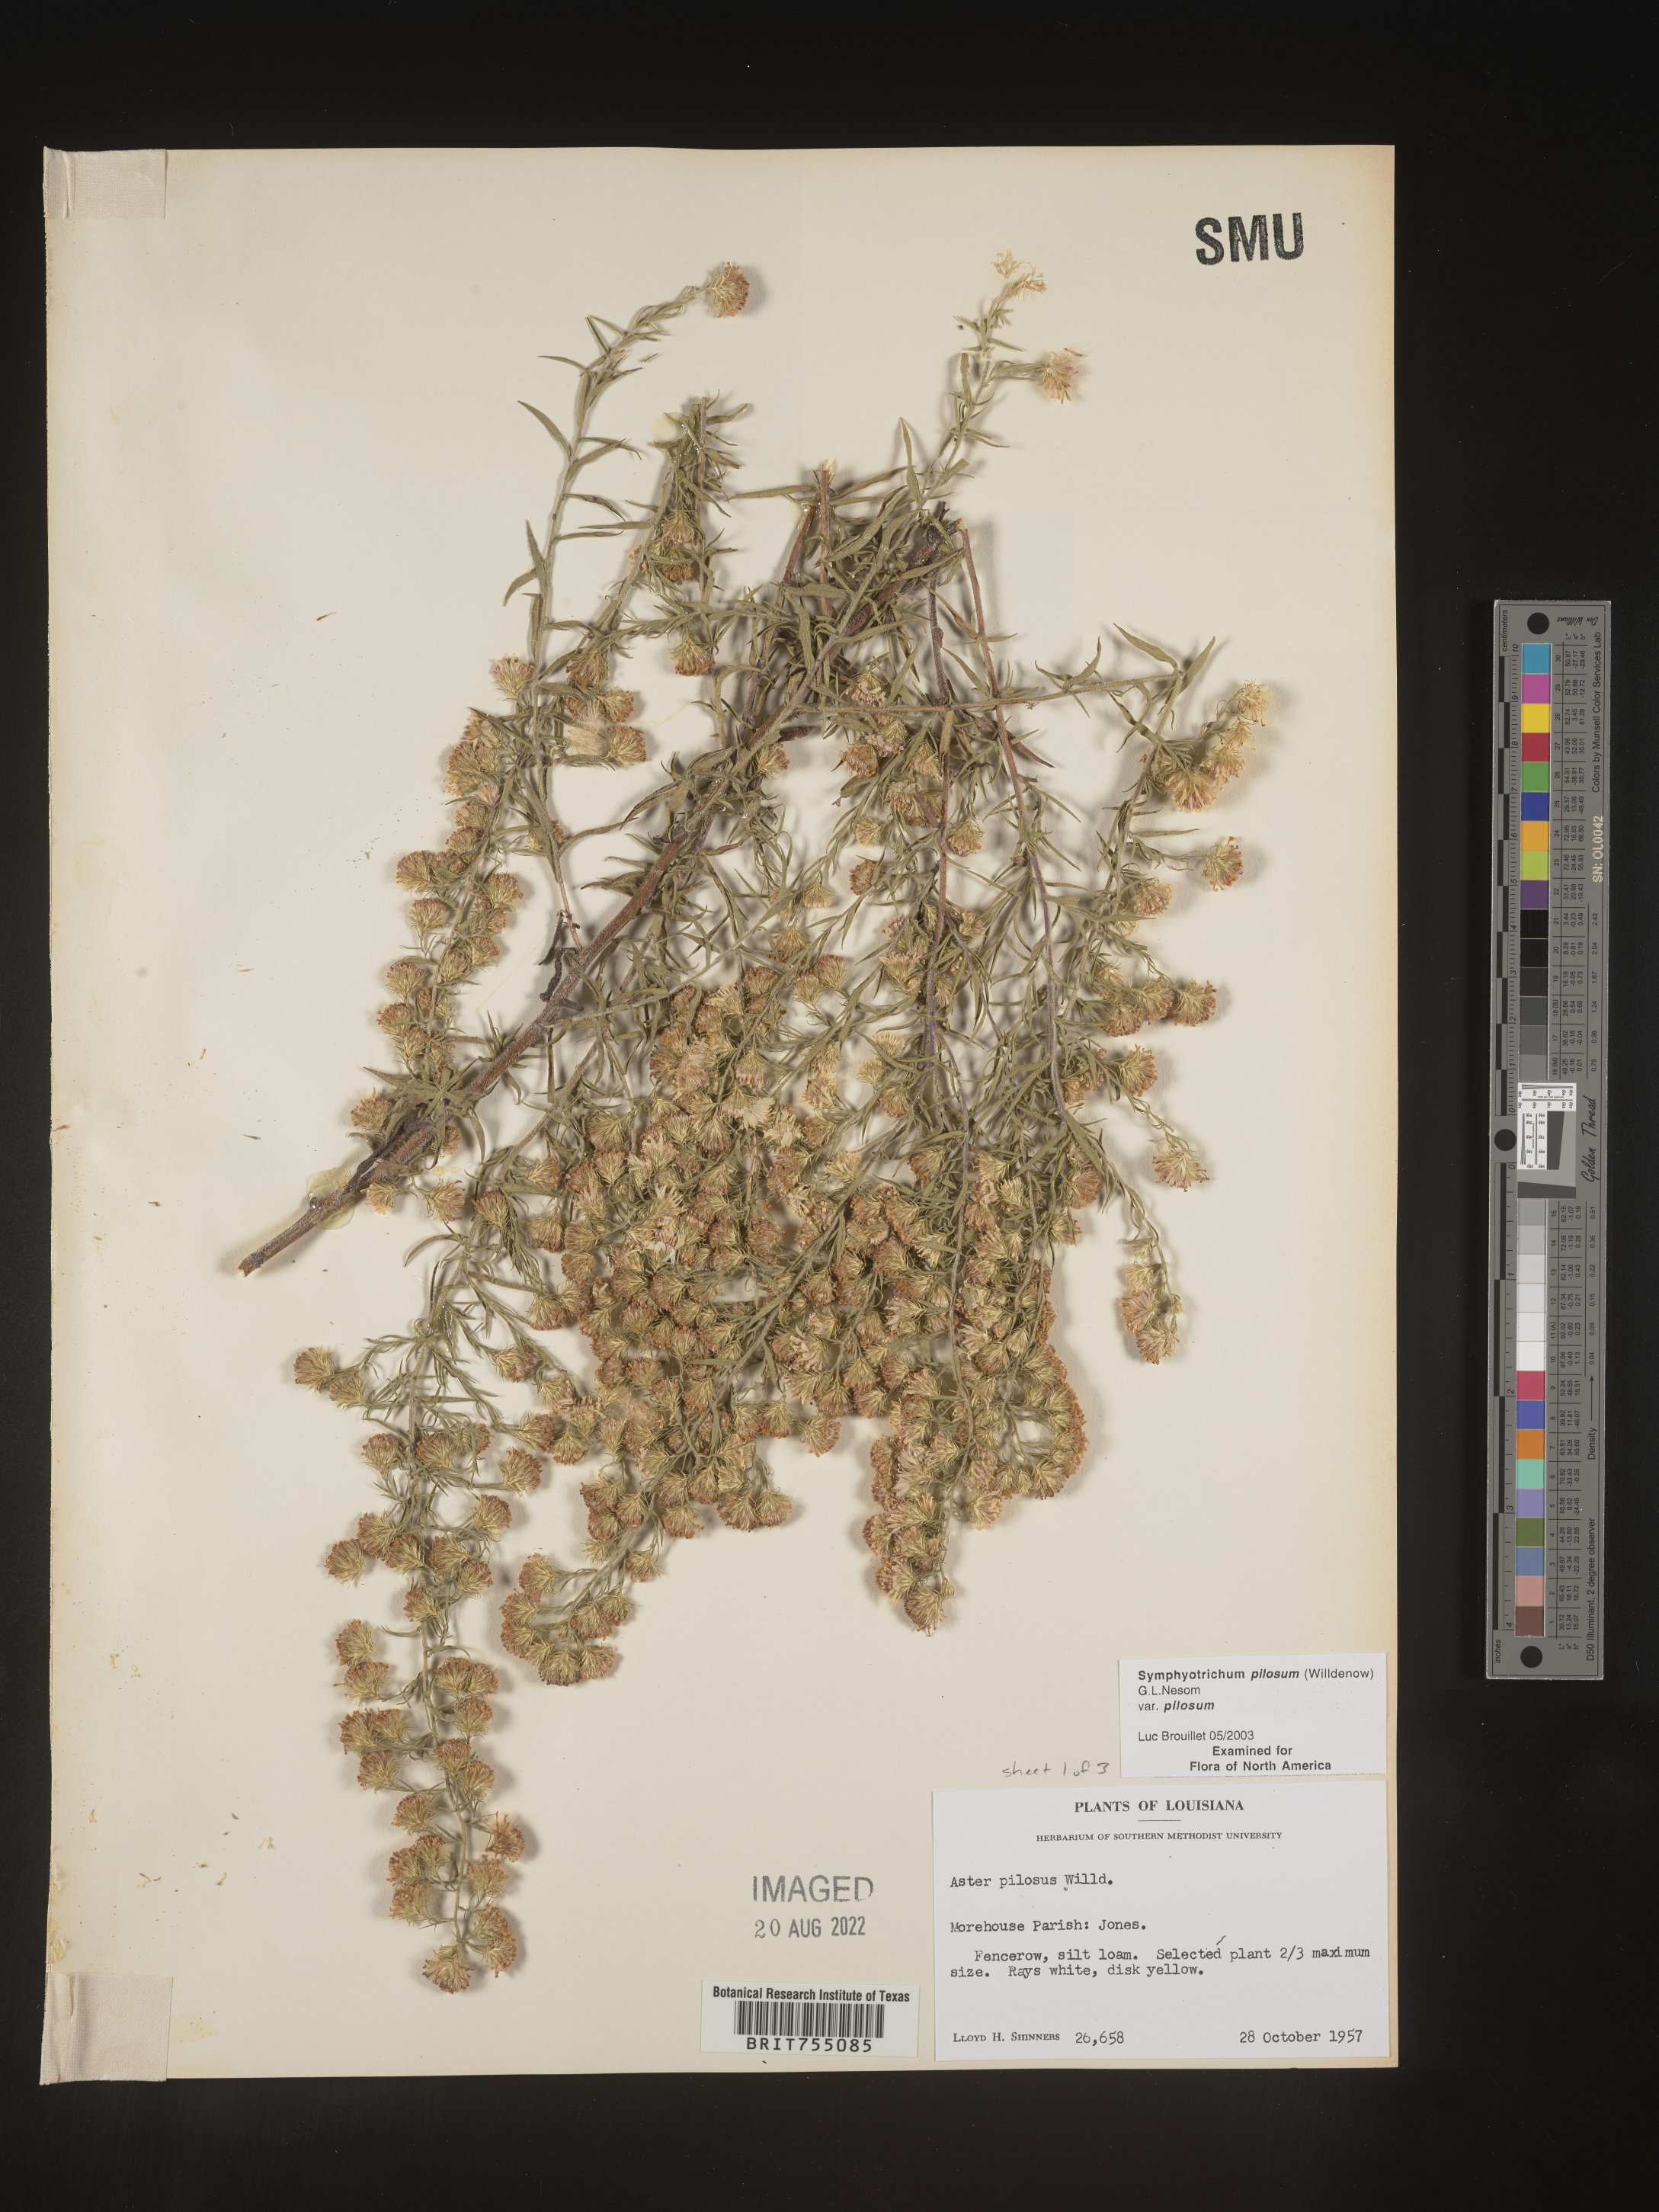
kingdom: Plantae
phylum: Tracheophyta
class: Magnoliopsida
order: Asterales
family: Asteraceae
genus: Symphyotrichum
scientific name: Symphyotrichum pilosum
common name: Awl aster
